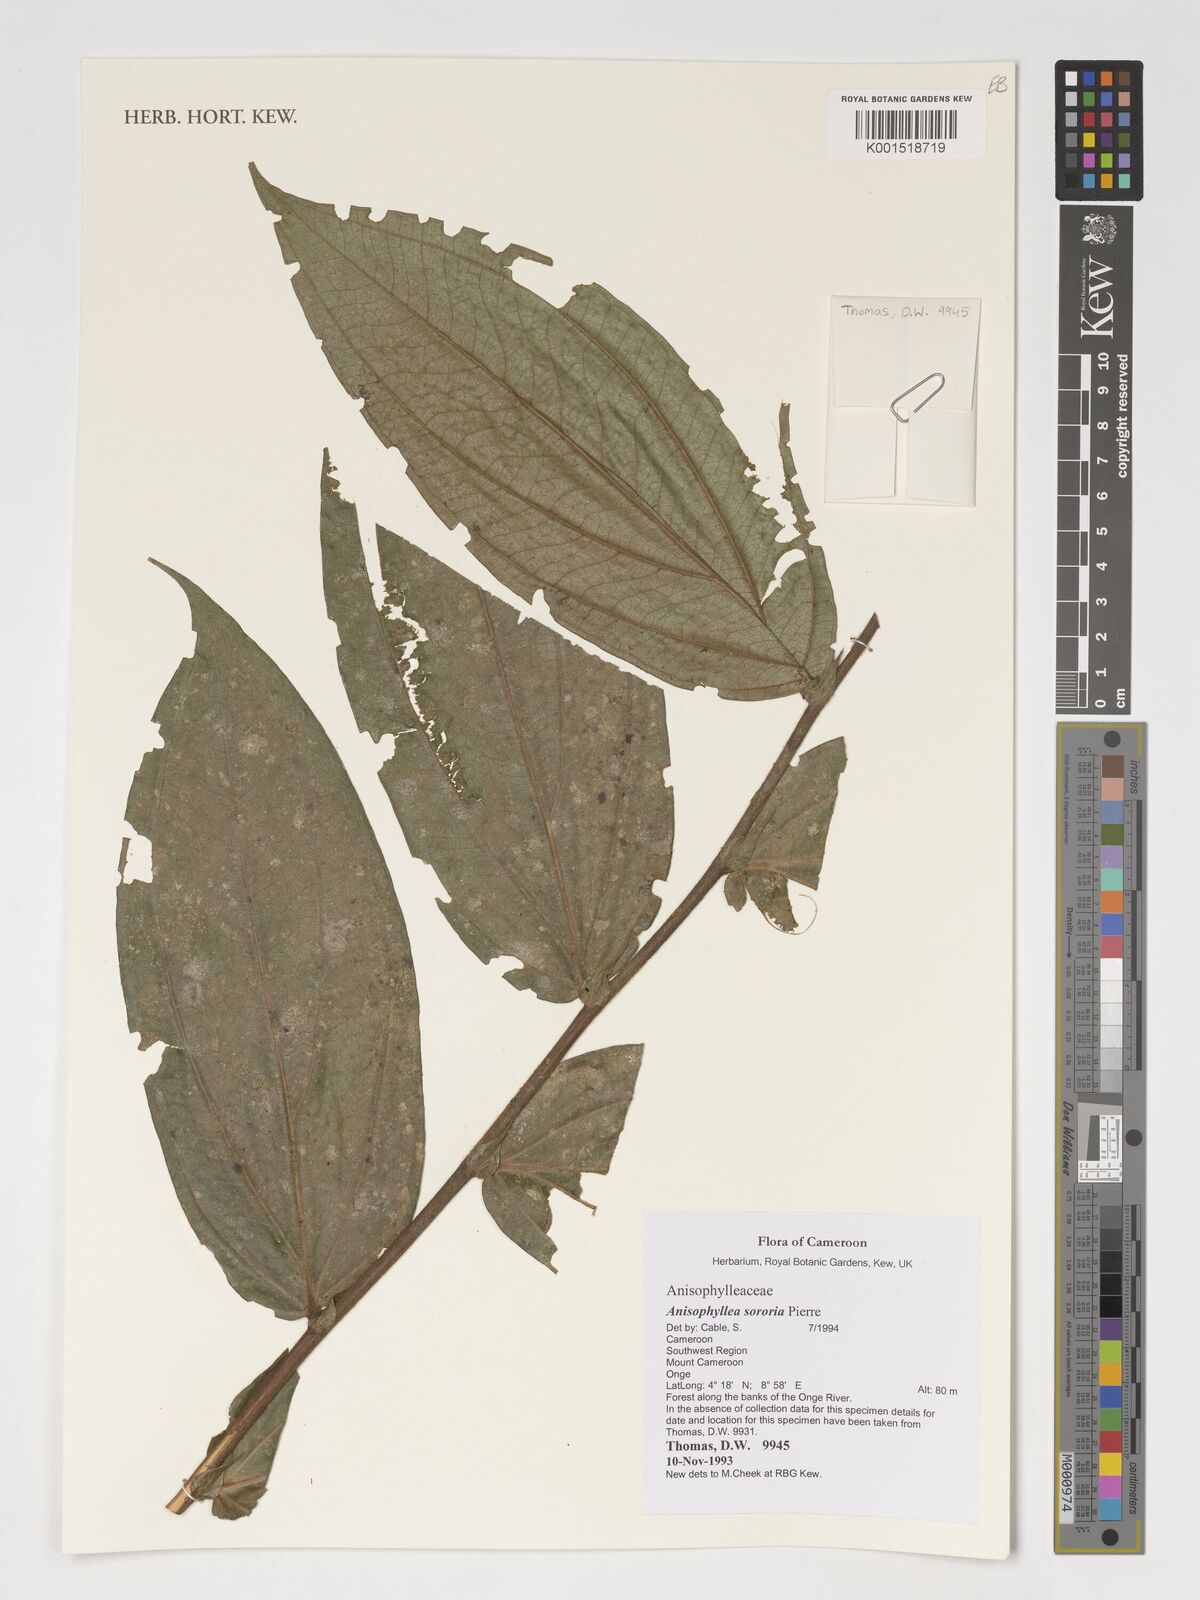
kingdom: Plantae
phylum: Tracheophyta
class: Magnoliopsida
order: Cucurbitales
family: Anisophylleaceae
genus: Anisophyllea
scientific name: Anisophyllea sororia
